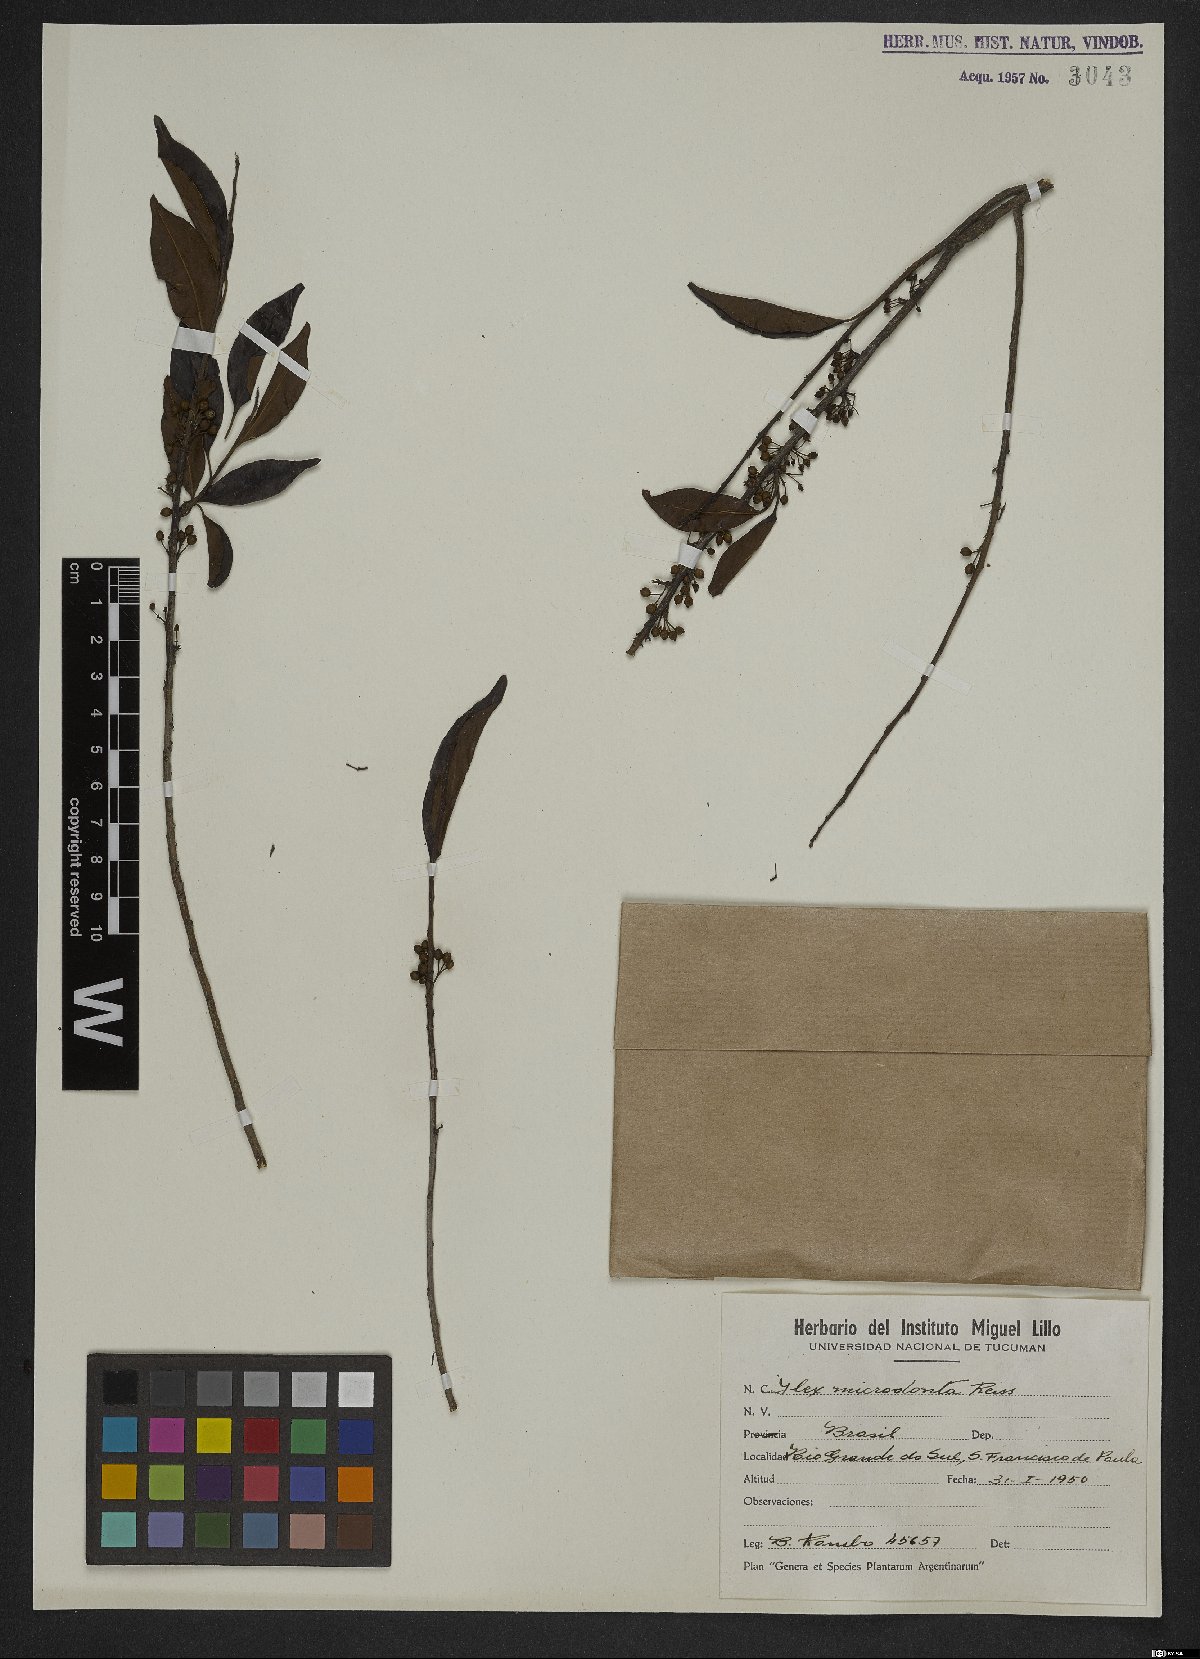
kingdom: Plantae
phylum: Tracheophyta
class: Magnoliopsida
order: Aquifoliales
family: Aquifoliaceae
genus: Ilex
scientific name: Ilex microdonta
